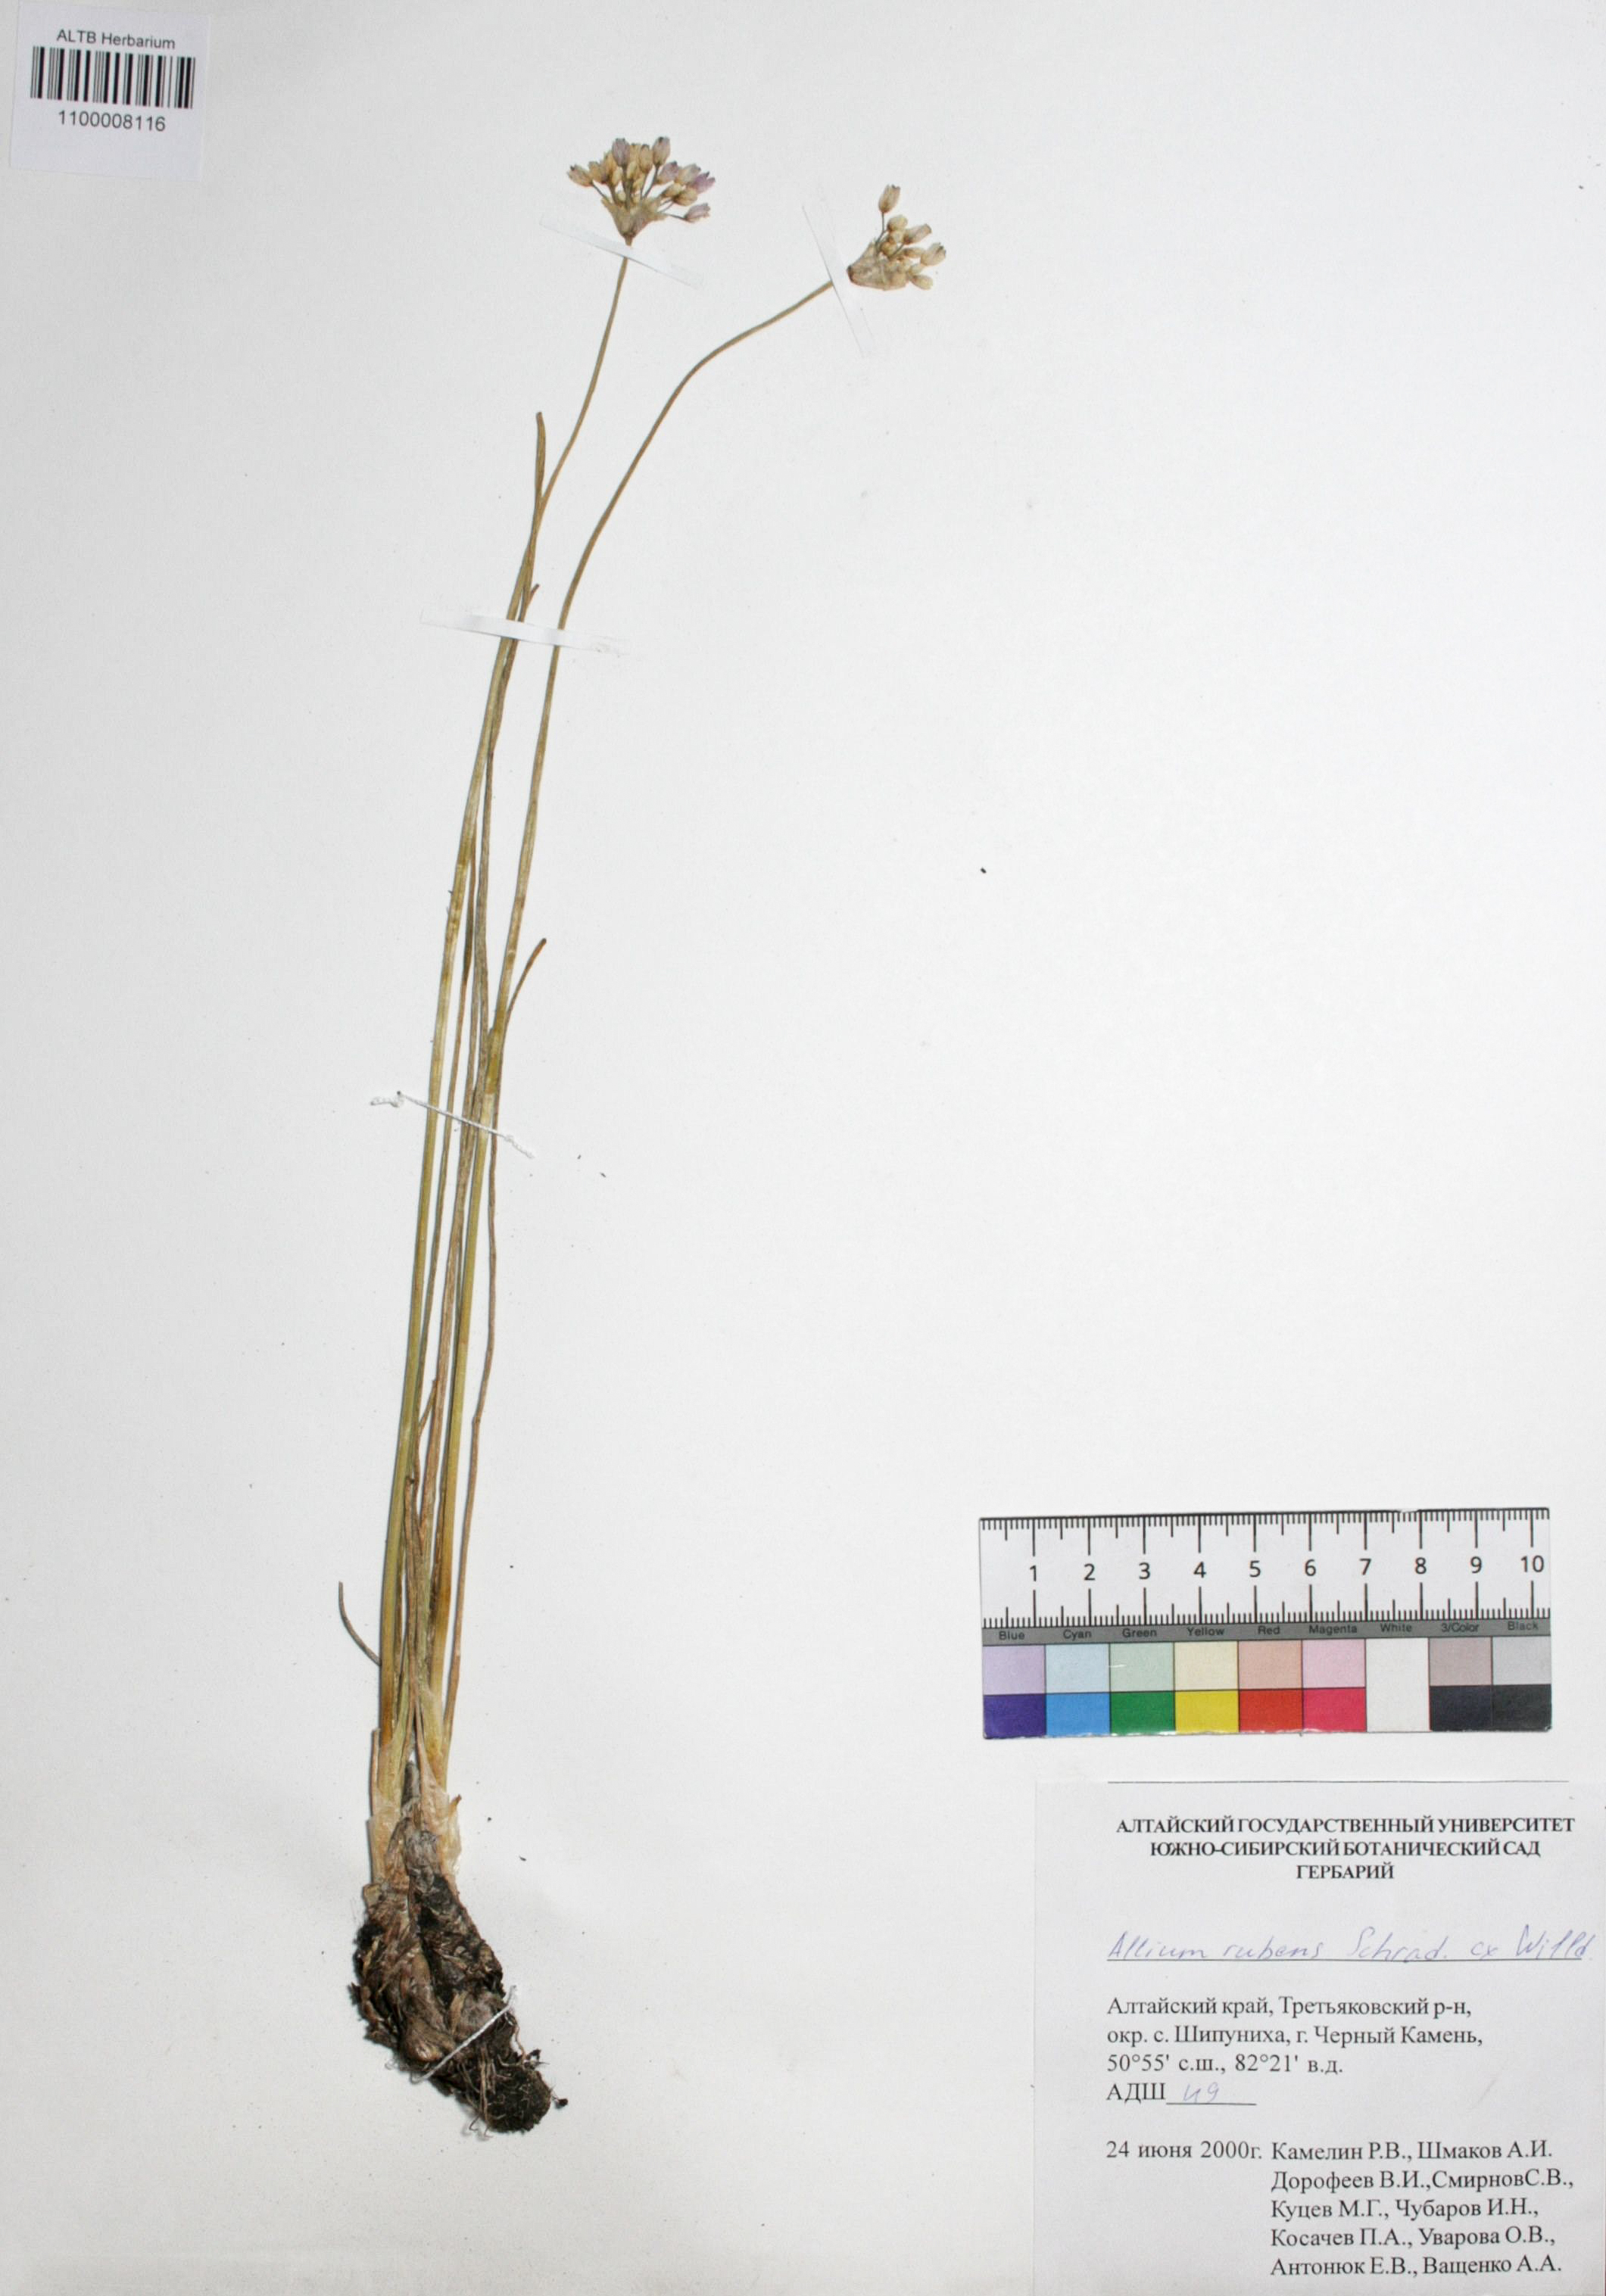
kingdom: Plantae
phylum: Tracheophyta
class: Liliopsida
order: Asparagales
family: Amaryllidaceae
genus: Allium
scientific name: Allium rubens
